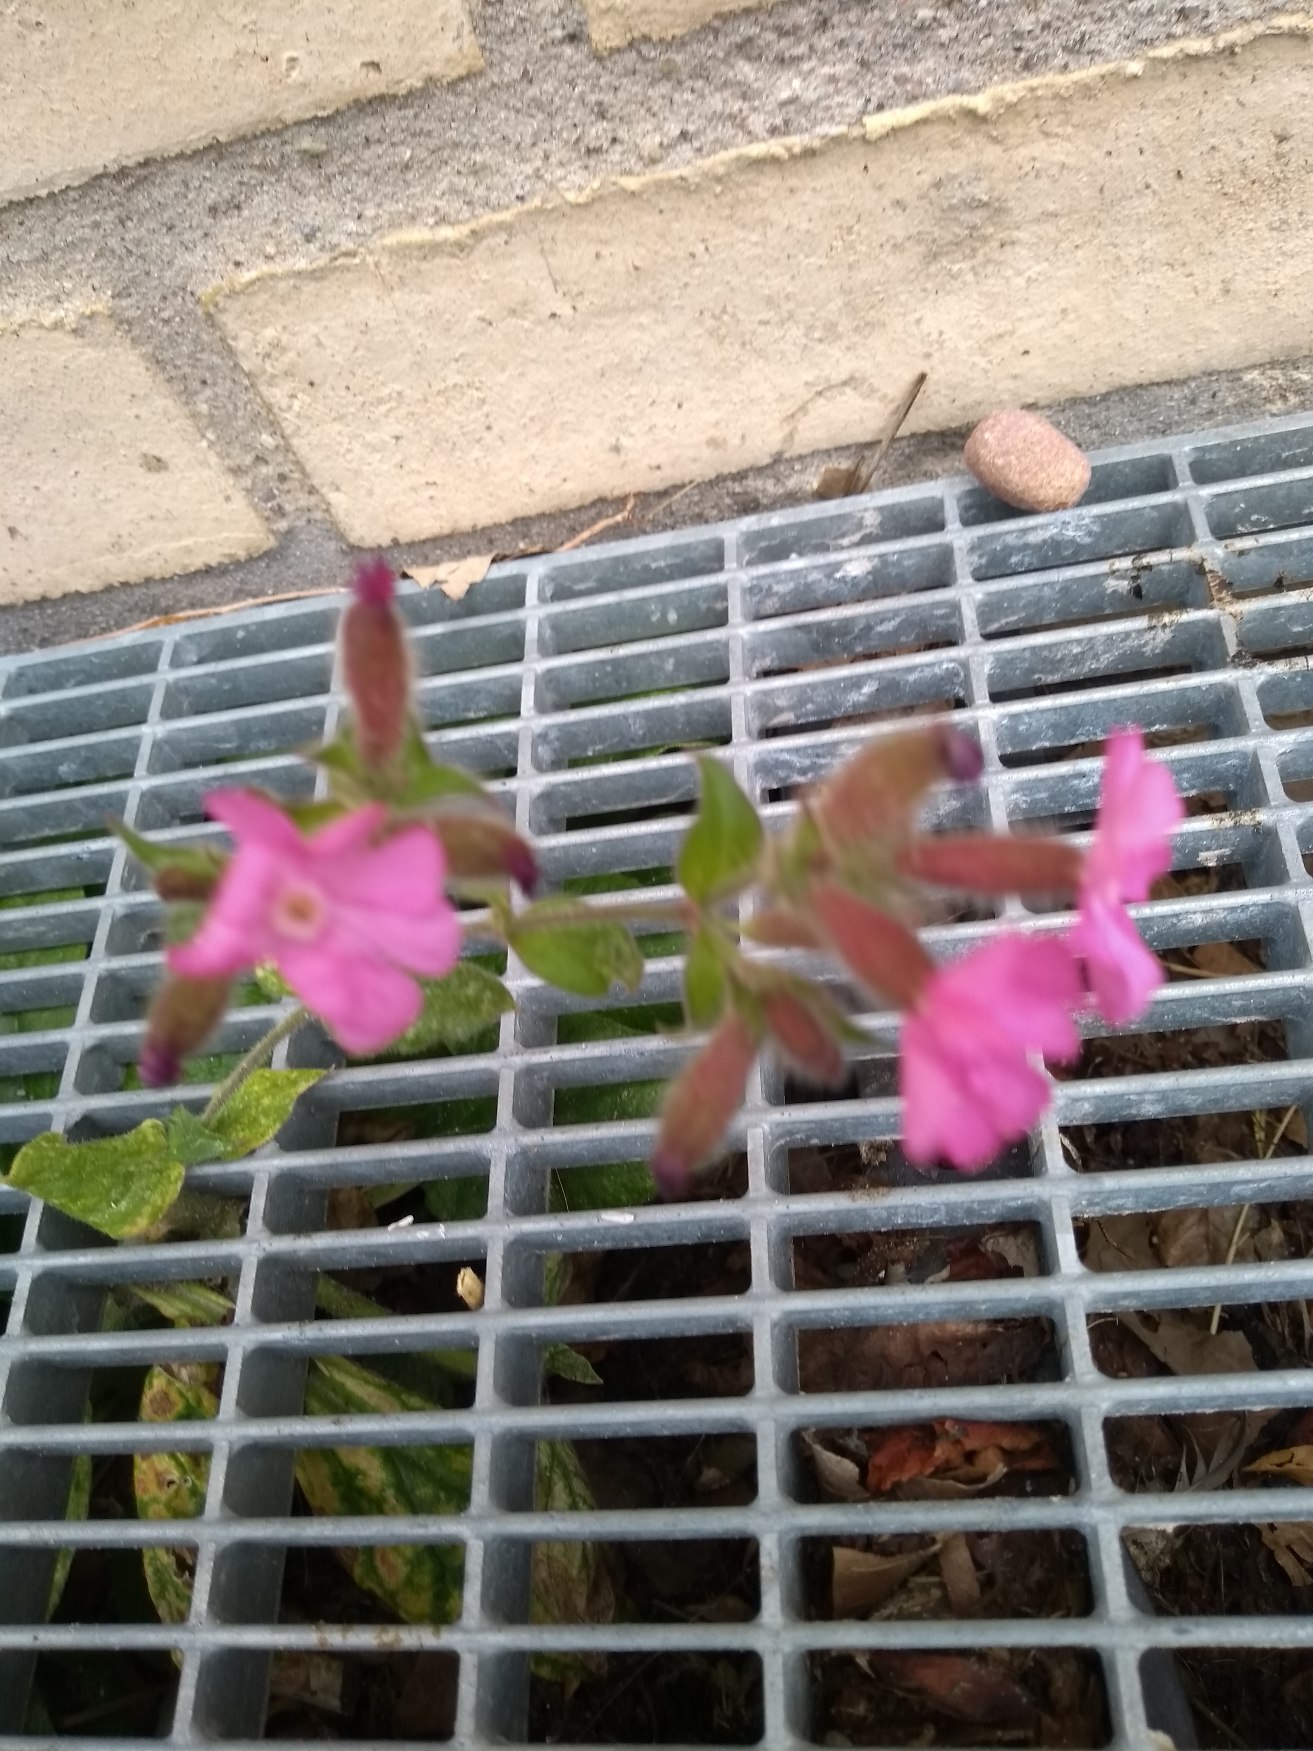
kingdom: Plantae
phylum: Tracheophyta
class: Magnoliopsida
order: Caryophyllales
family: Caryophyllaceae
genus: Silene
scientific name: Silene dioica
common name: Dagpragtstjerne
